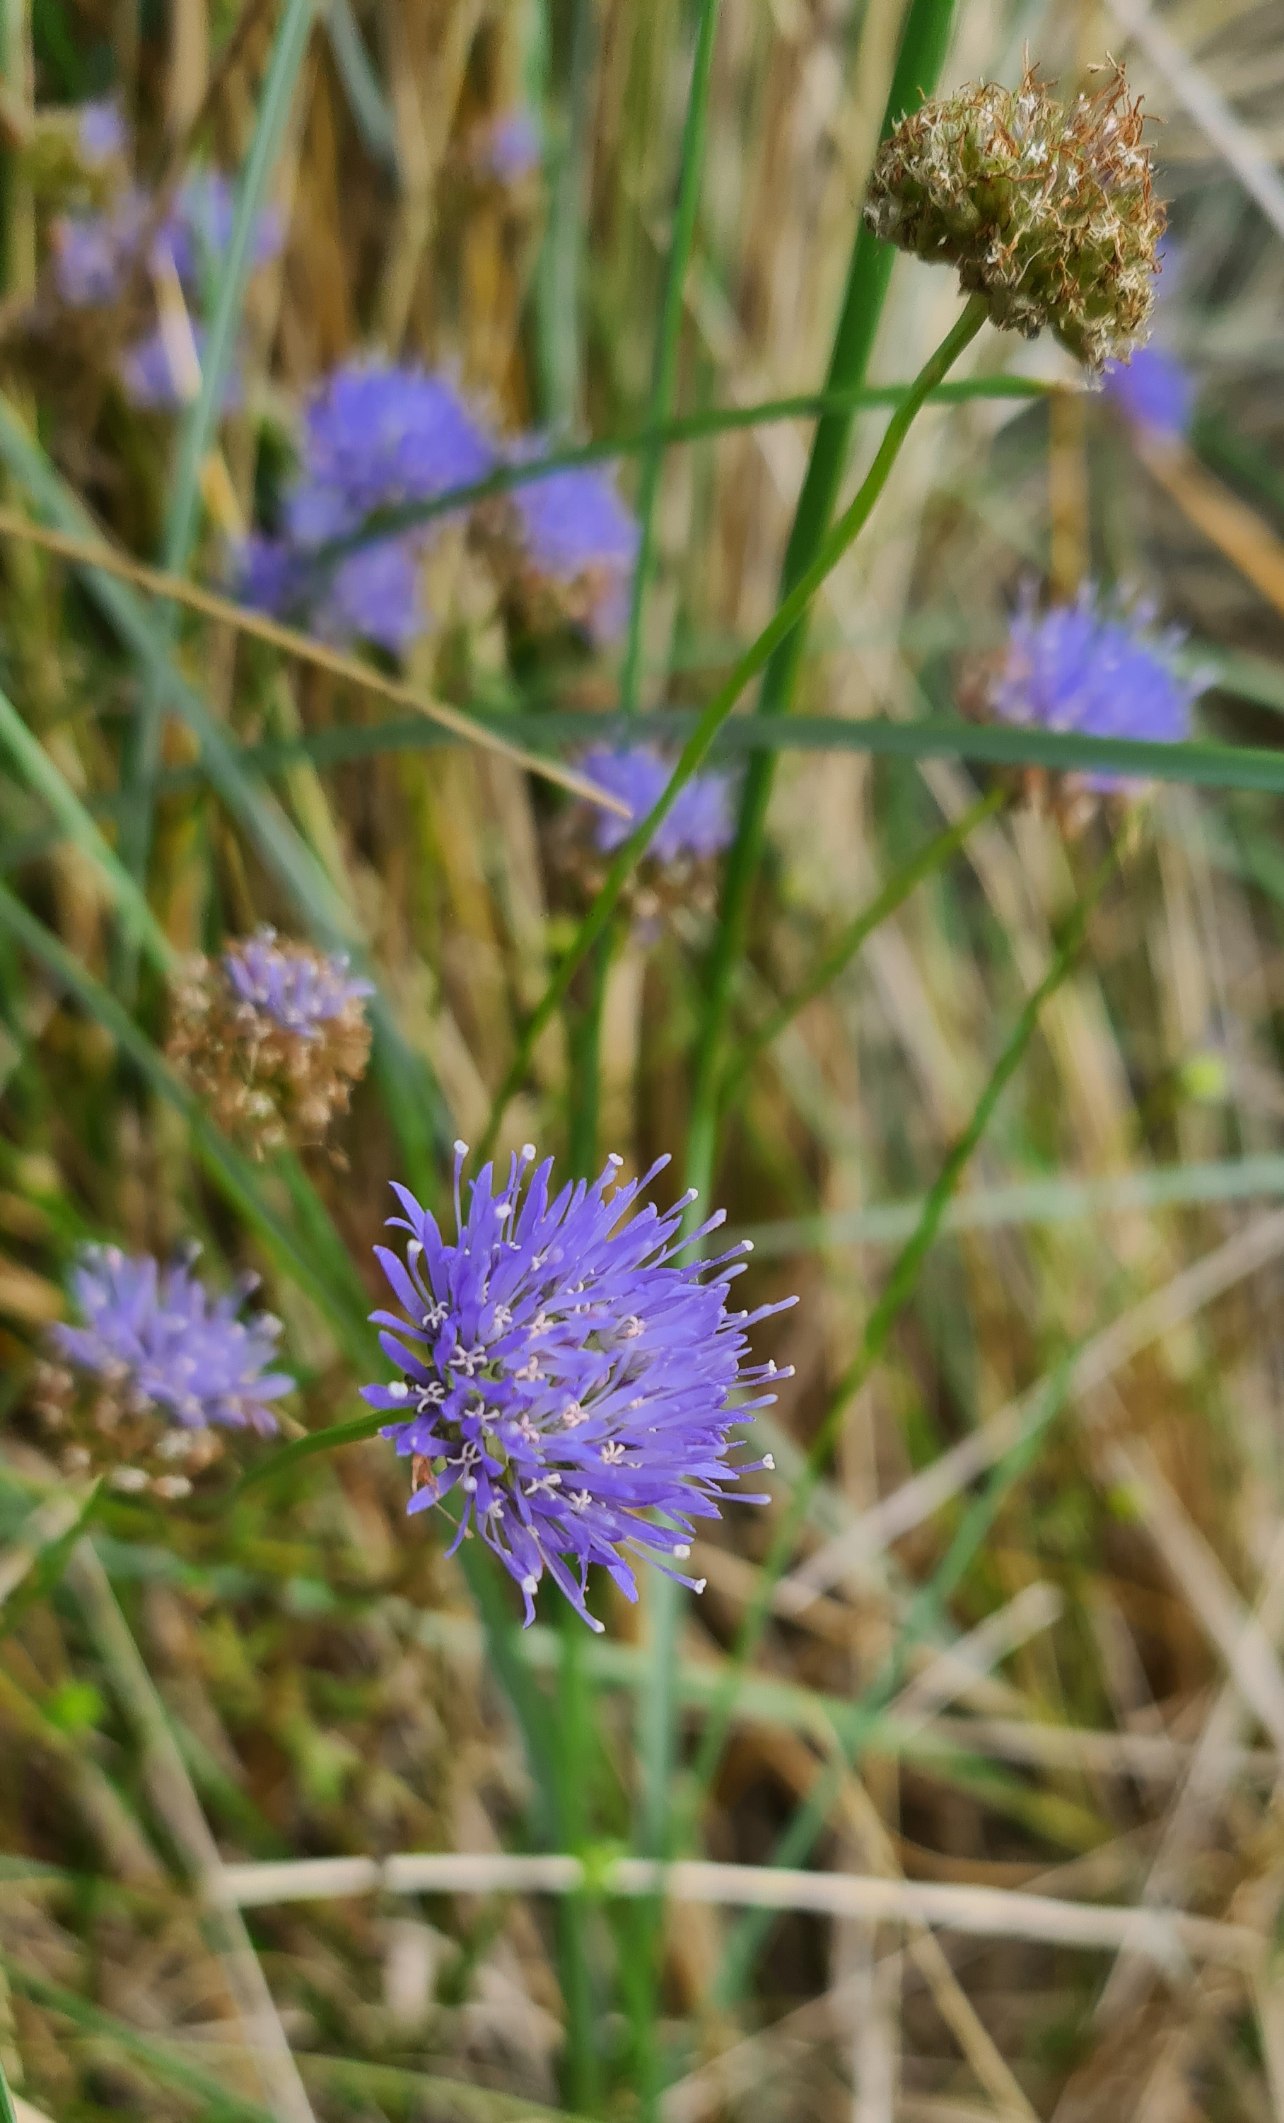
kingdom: Plantae
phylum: Tracheophyta
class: Magnoliopsida
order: Asterales
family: Campanulaceae
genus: Jasione
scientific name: Jasione montana
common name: Blåmunke
